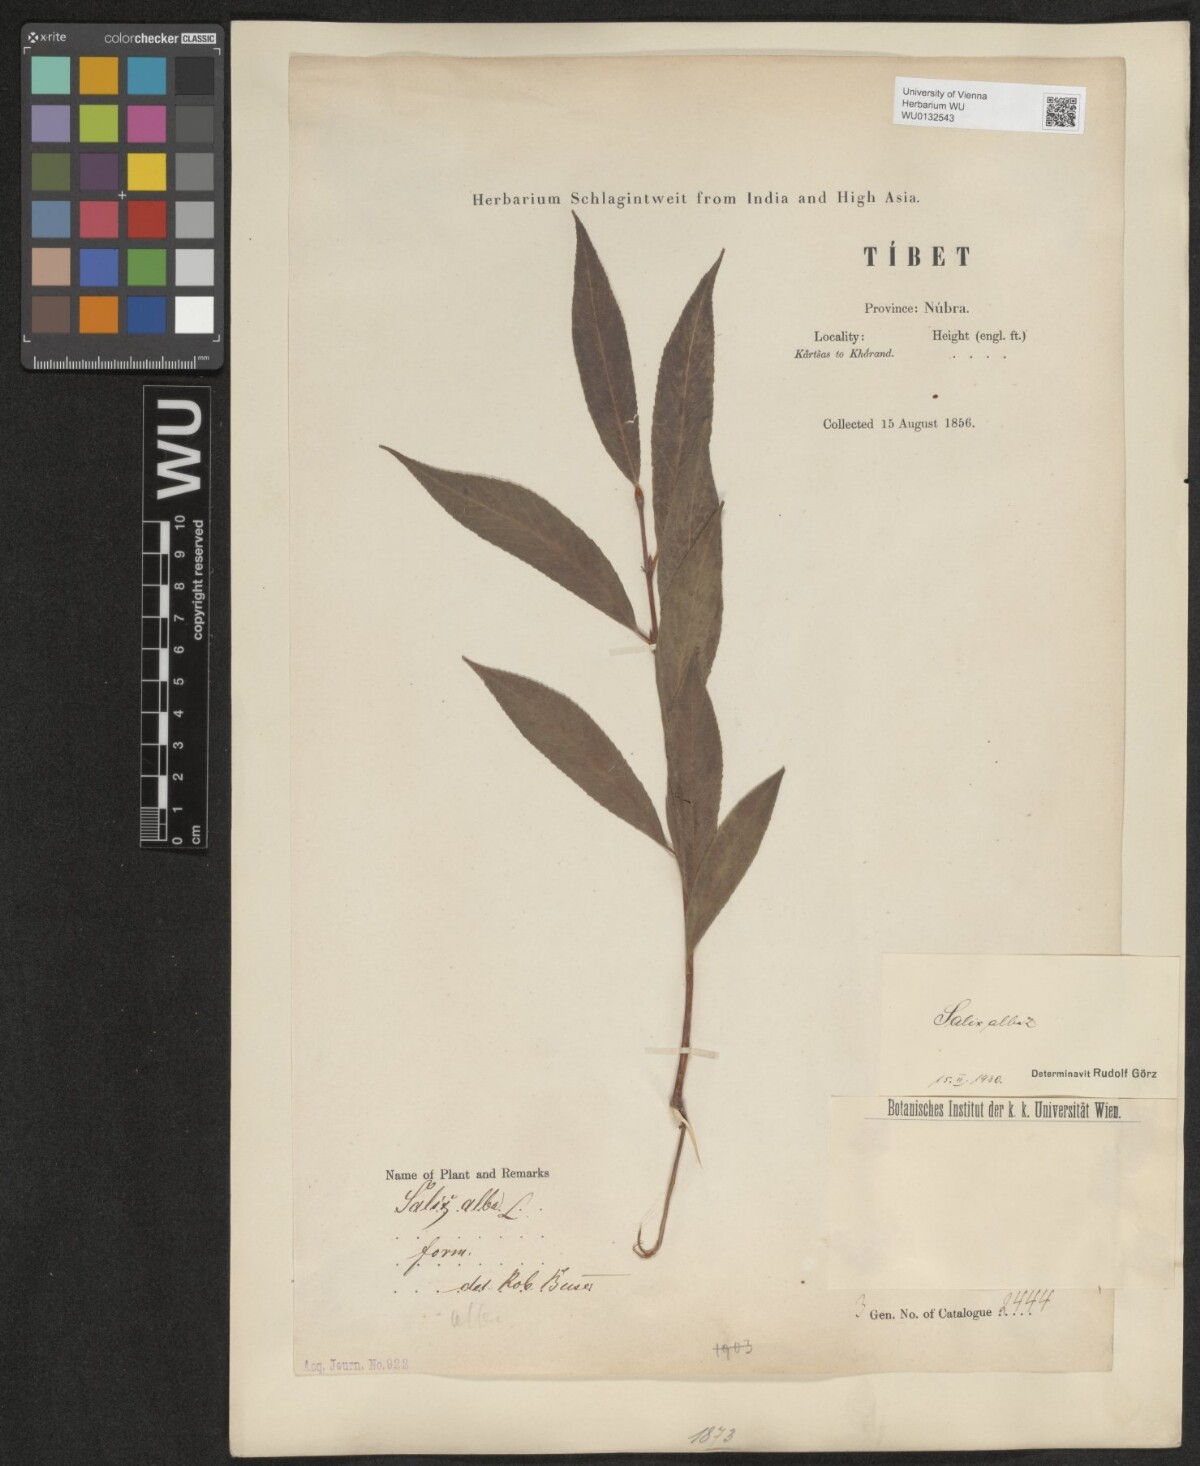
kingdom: Plantae
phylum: Tracheophyta
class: Magnoliopsida
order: Malpighiales
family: Salicaceae
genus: Salix
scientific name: Salix alba
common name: White willow
